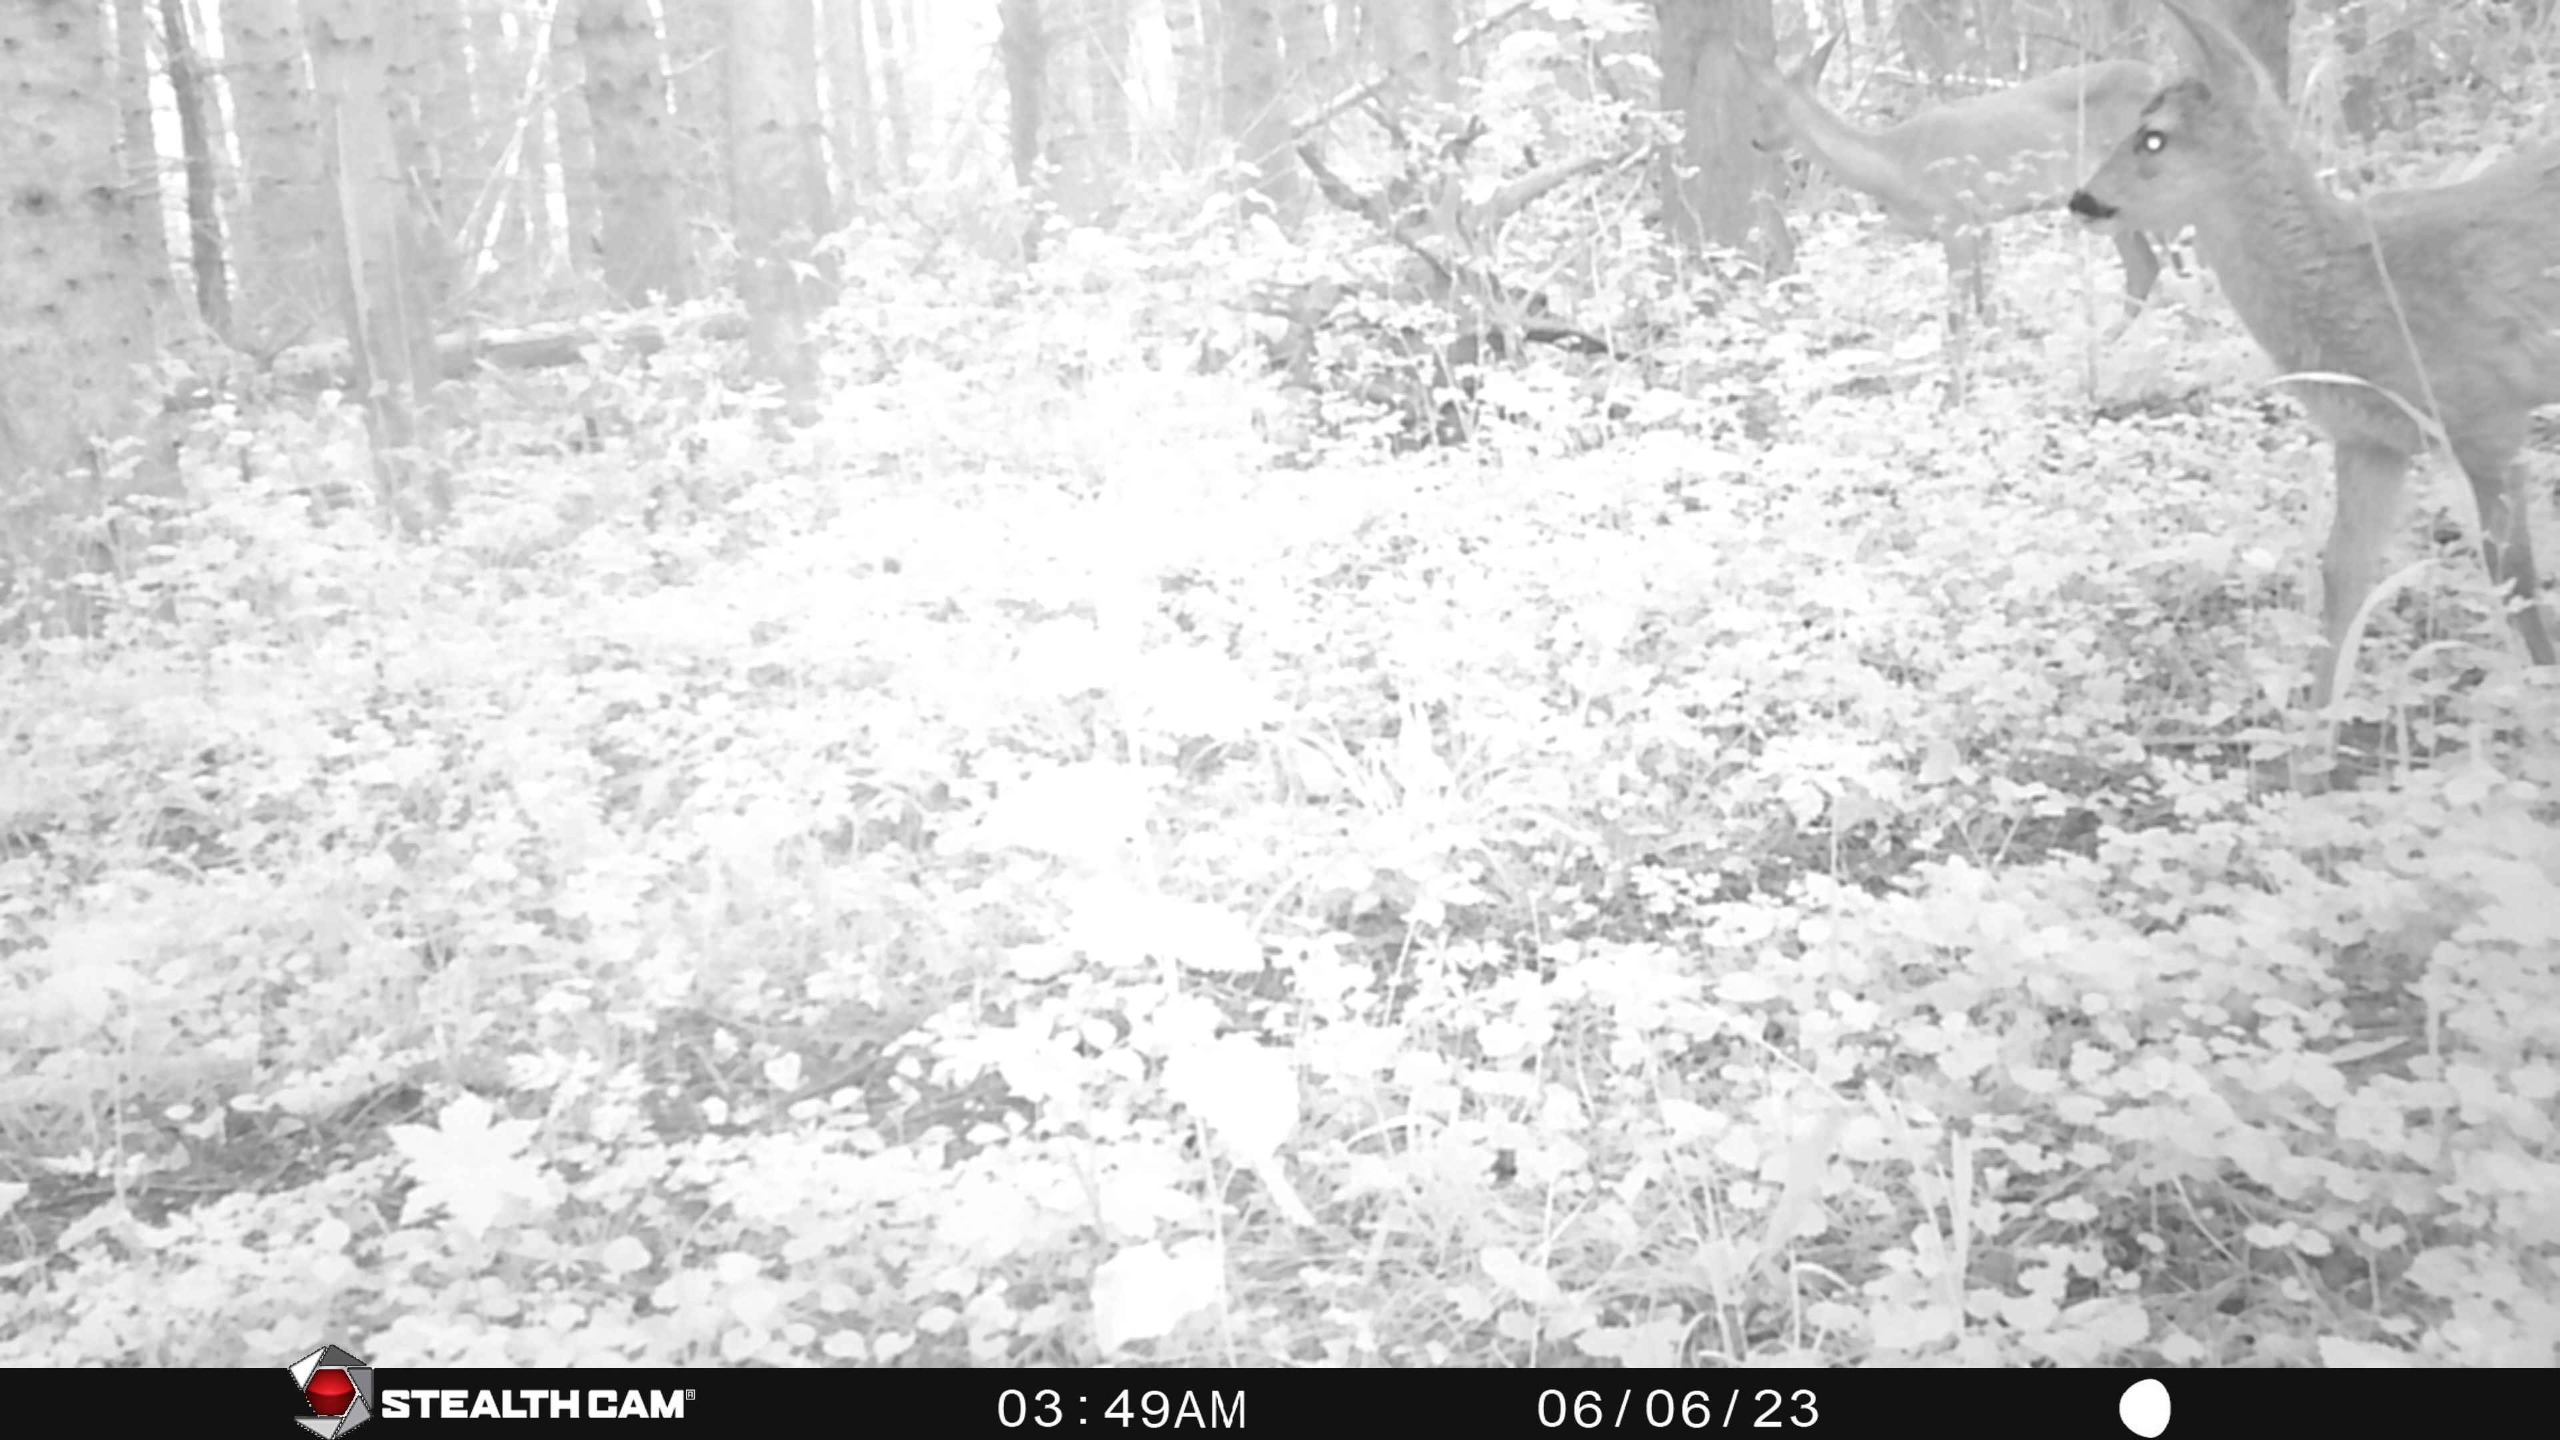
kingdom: Animalia
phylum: Chordata
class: Mammalia
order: Artiodactyla
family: Cervidae
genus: Capreolus
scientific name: Capreolus capreolus
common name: Rådyr
